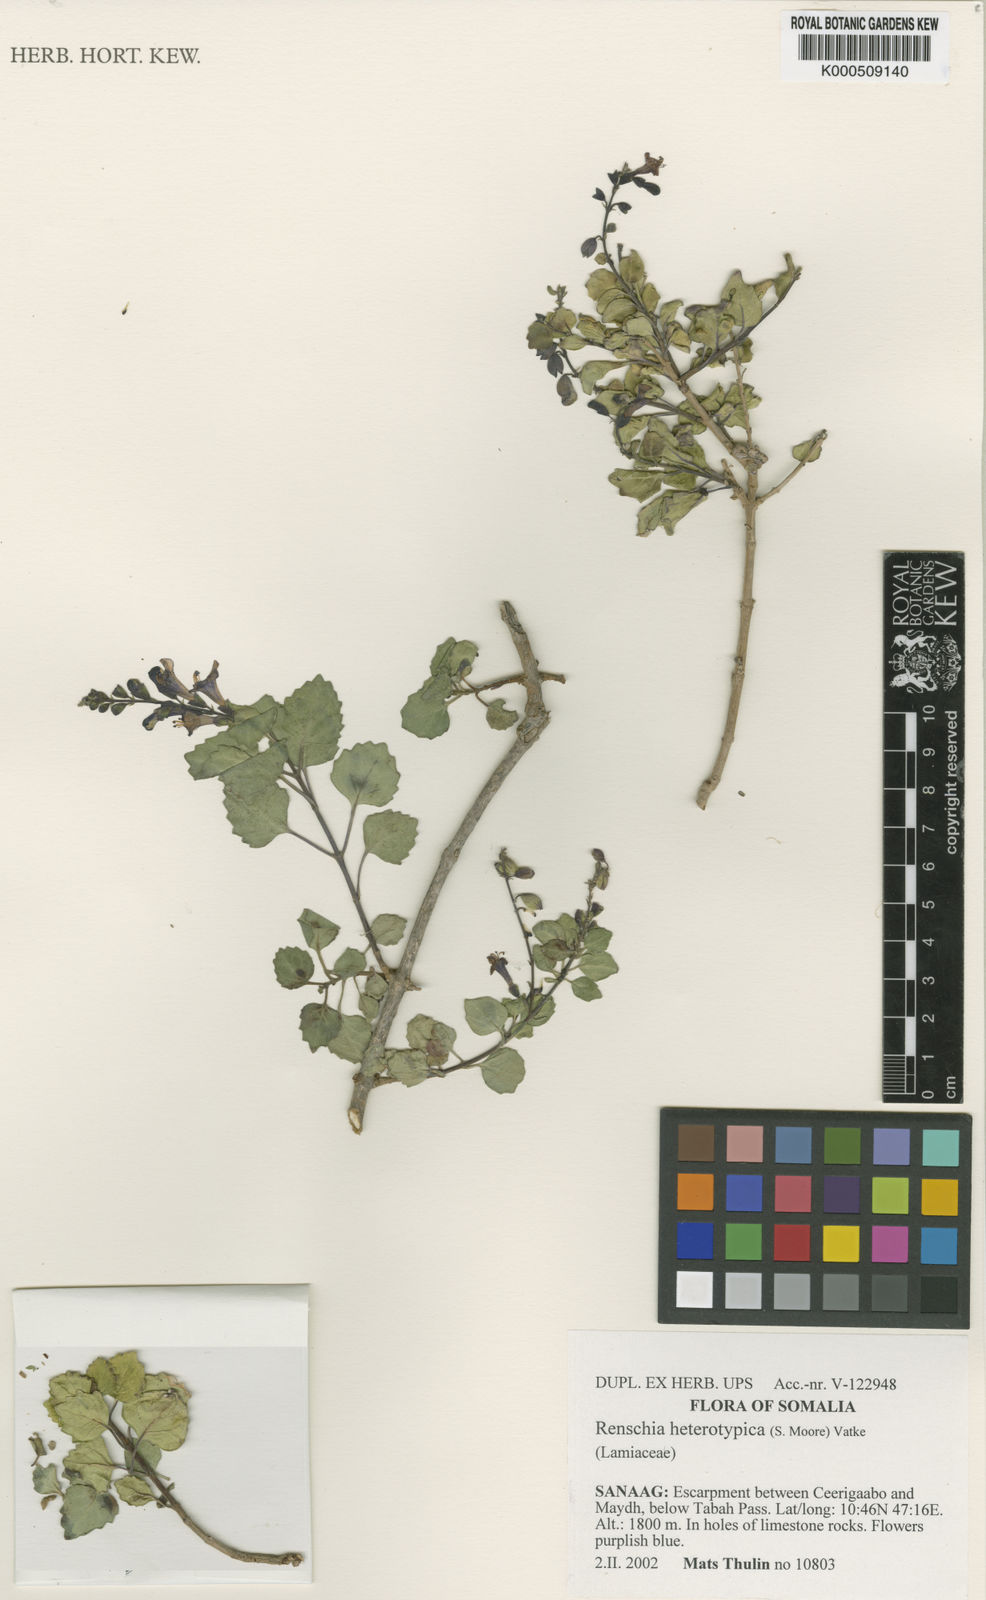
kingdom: Plantae
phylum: Tracheophyta
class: Magnoliopsida
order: Lamiales
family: Lamiaceae
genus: Renschia
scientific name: Renschia heterotypica
